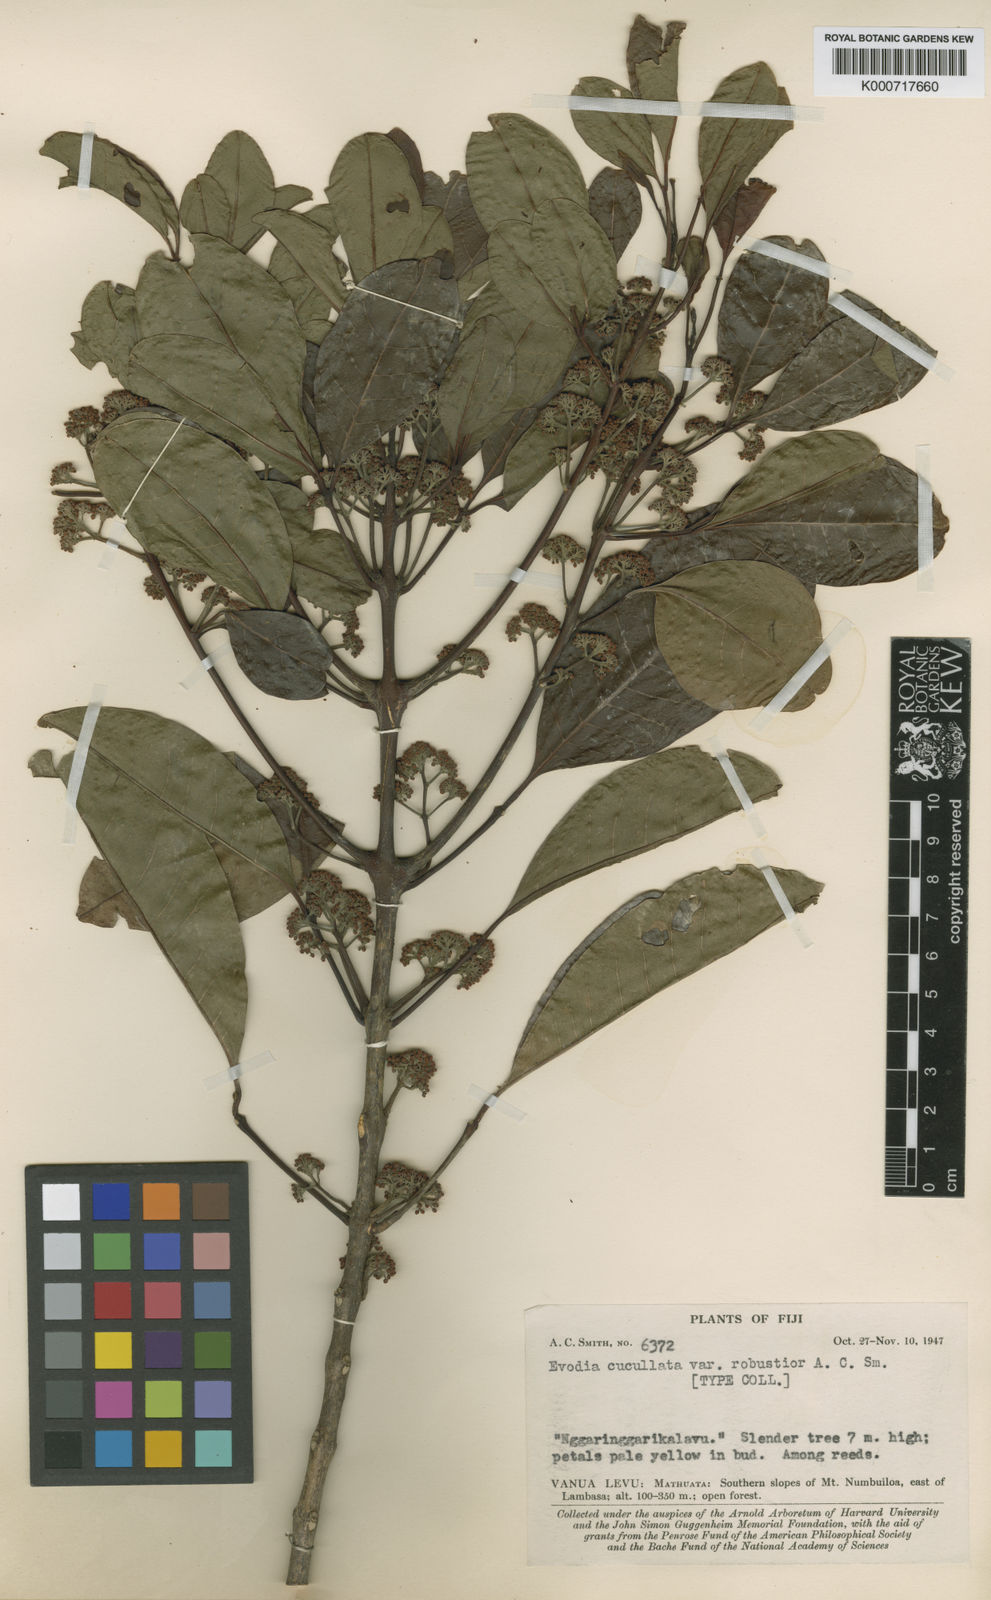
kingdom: Plantae
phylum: Tracheophyta
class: Magnoliopsida
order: Sapindales
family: Rutaceae
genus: Melicope
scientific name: Melicope cucullata
